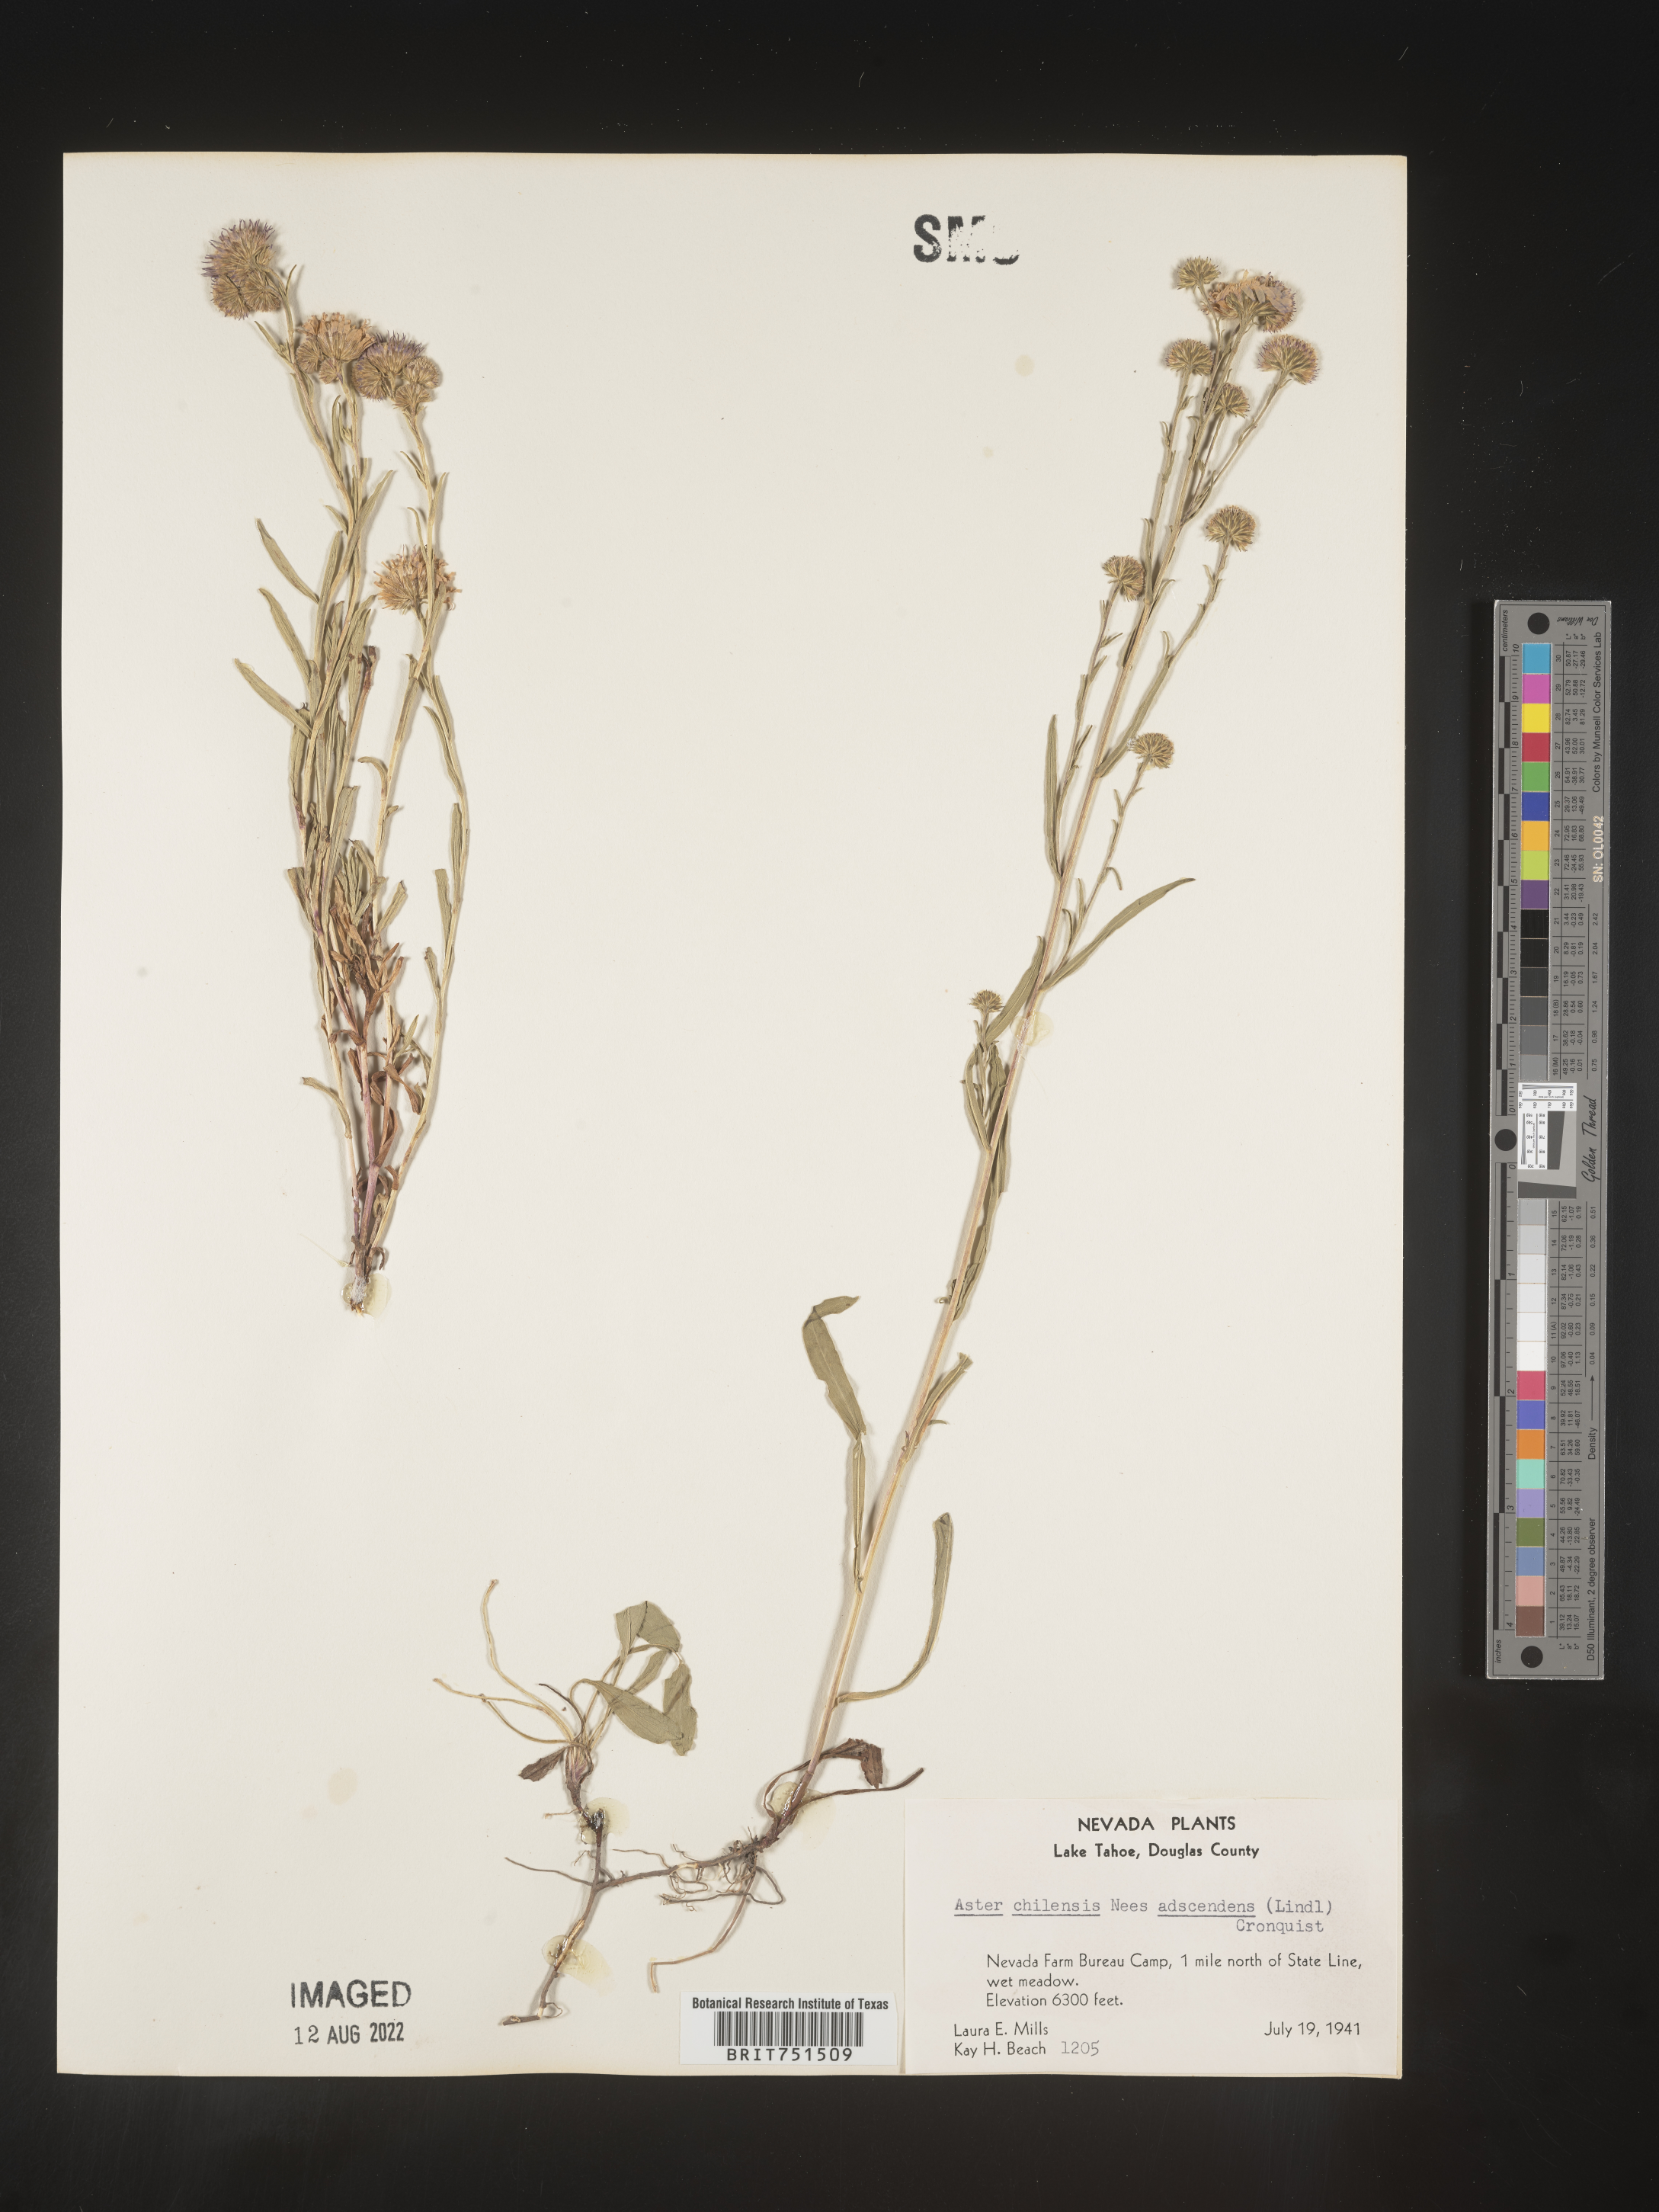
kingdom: Plantae
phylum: Tracheophyta
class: Magnoliopsida
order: Asterales
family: Asteraceae
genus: Symphyotrichum
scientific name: Symphyotrichum chilense
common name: Pacific aster
